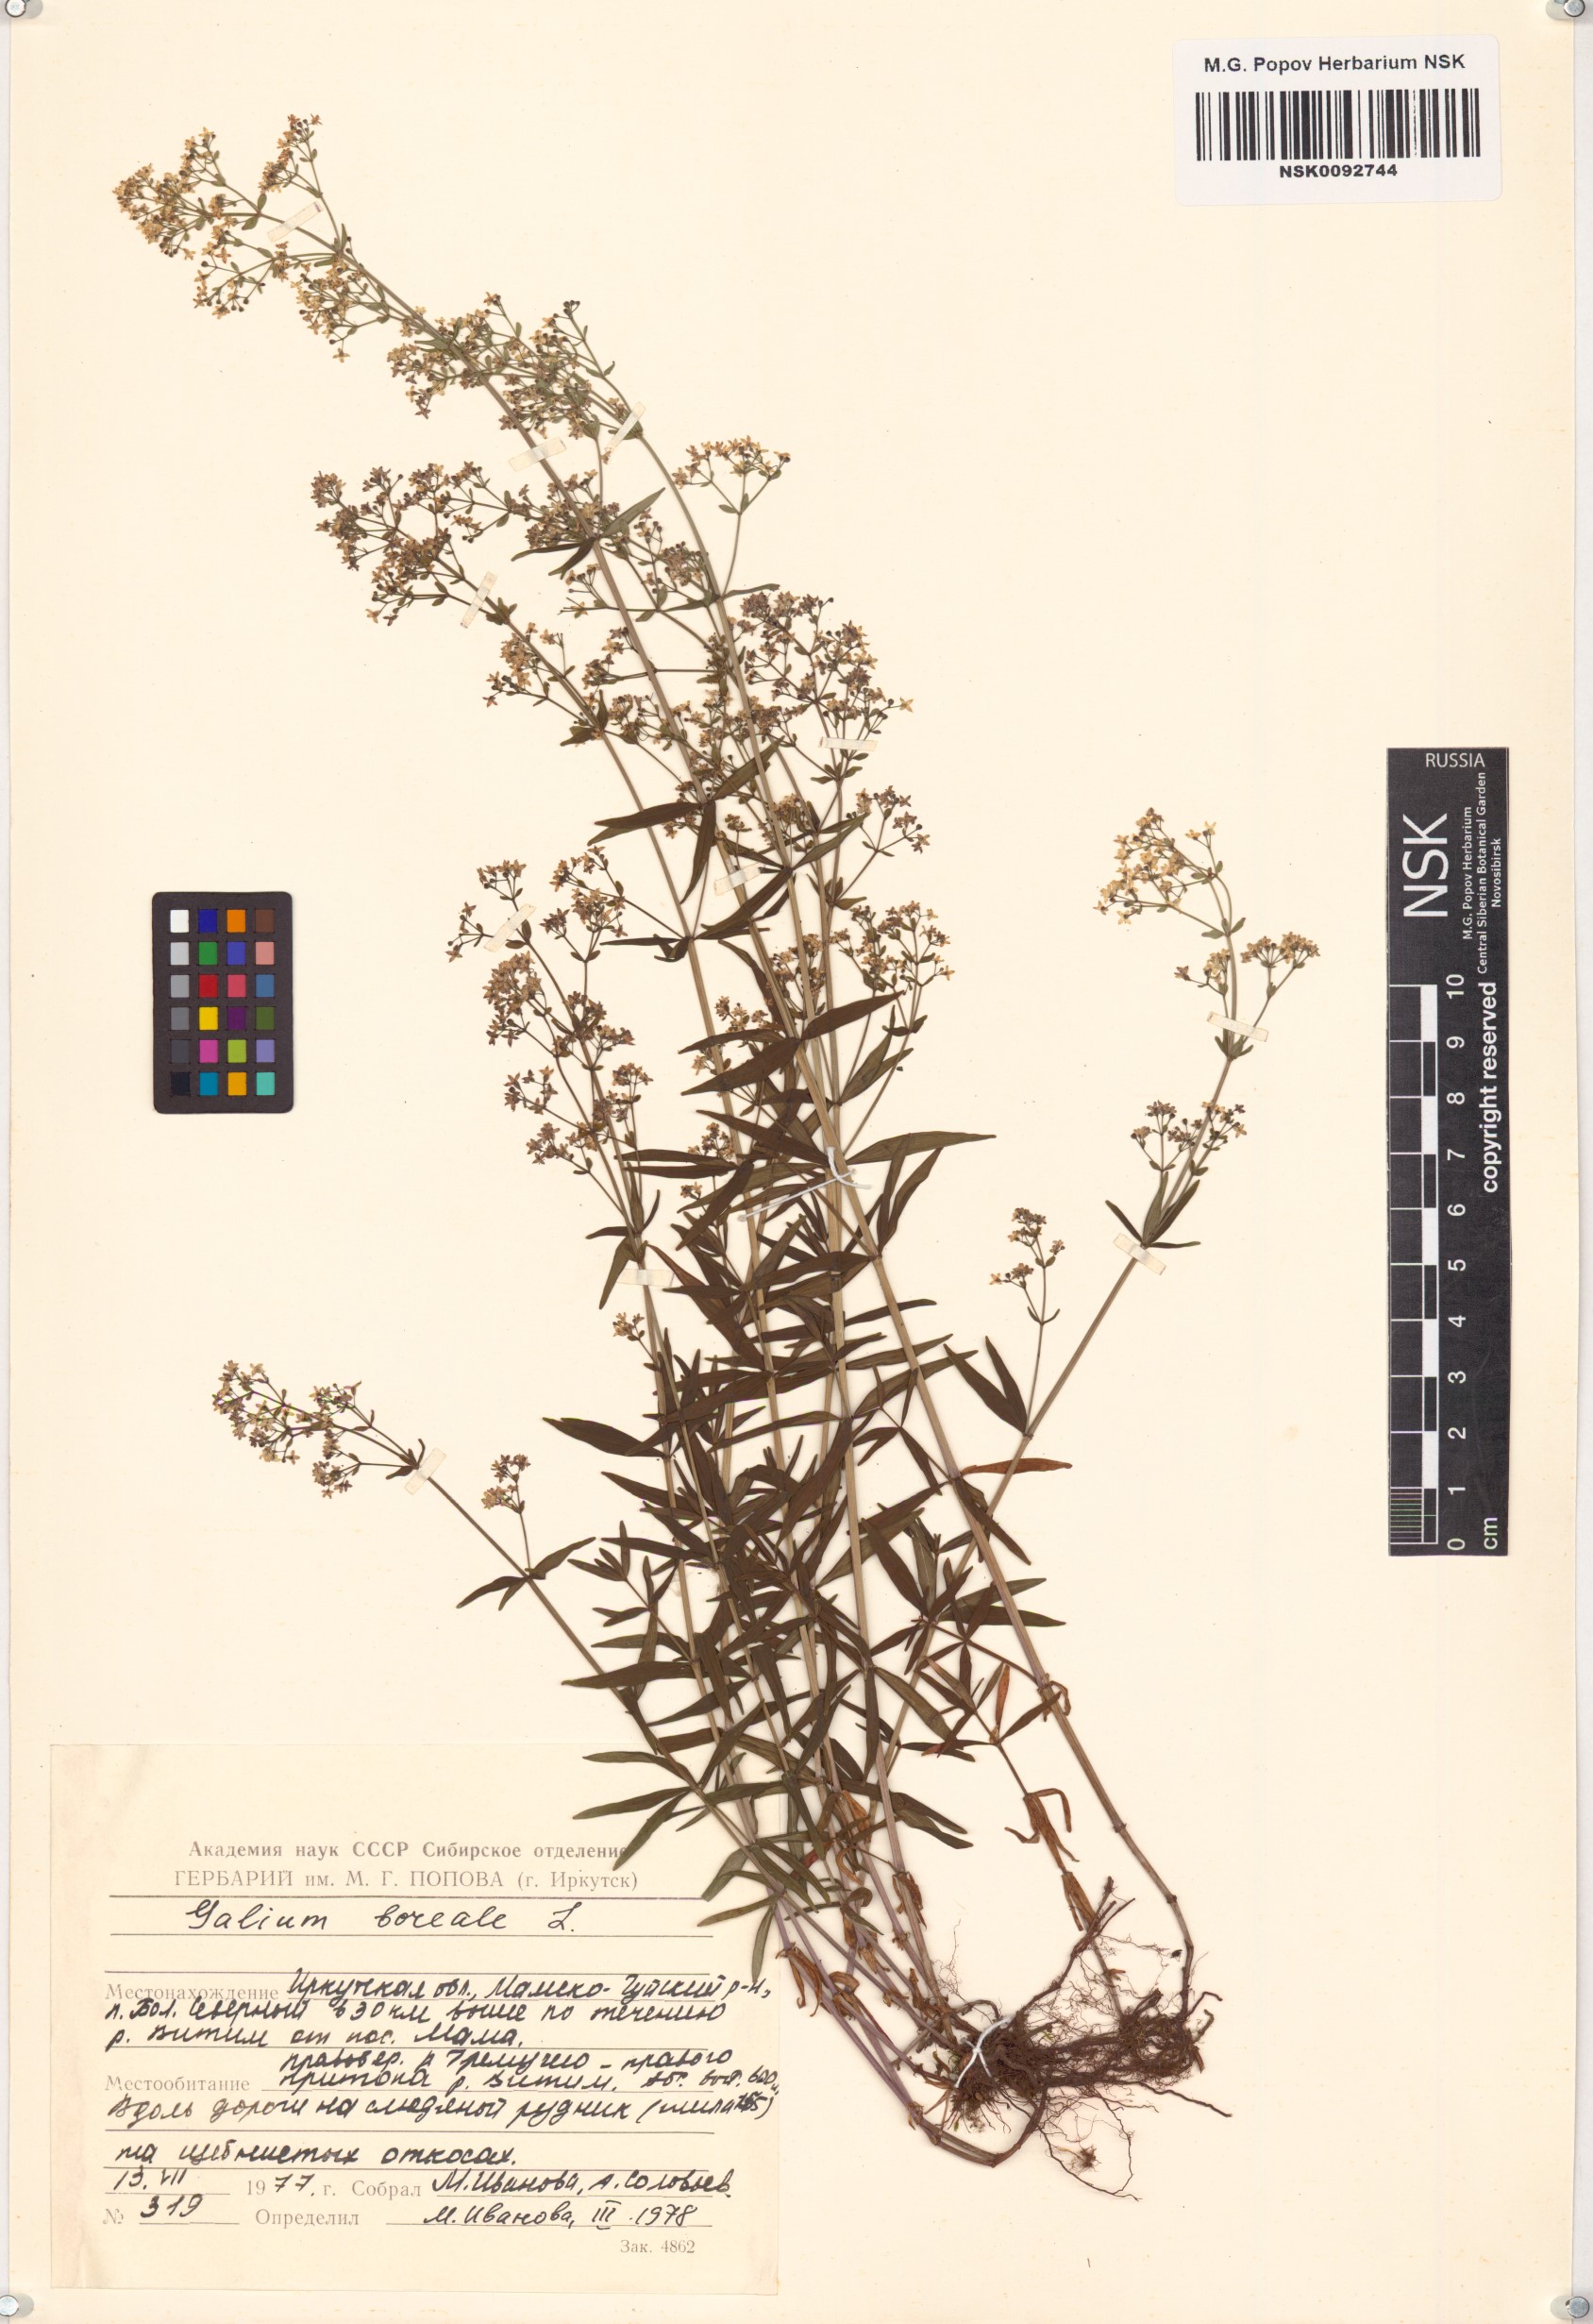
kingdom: Plantae
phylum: Tracheophyta
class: Magnoliopsida
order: Gentianales
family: Rubiaceae
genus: Galium
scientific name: Galium boreale
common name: Northern bedstraw
